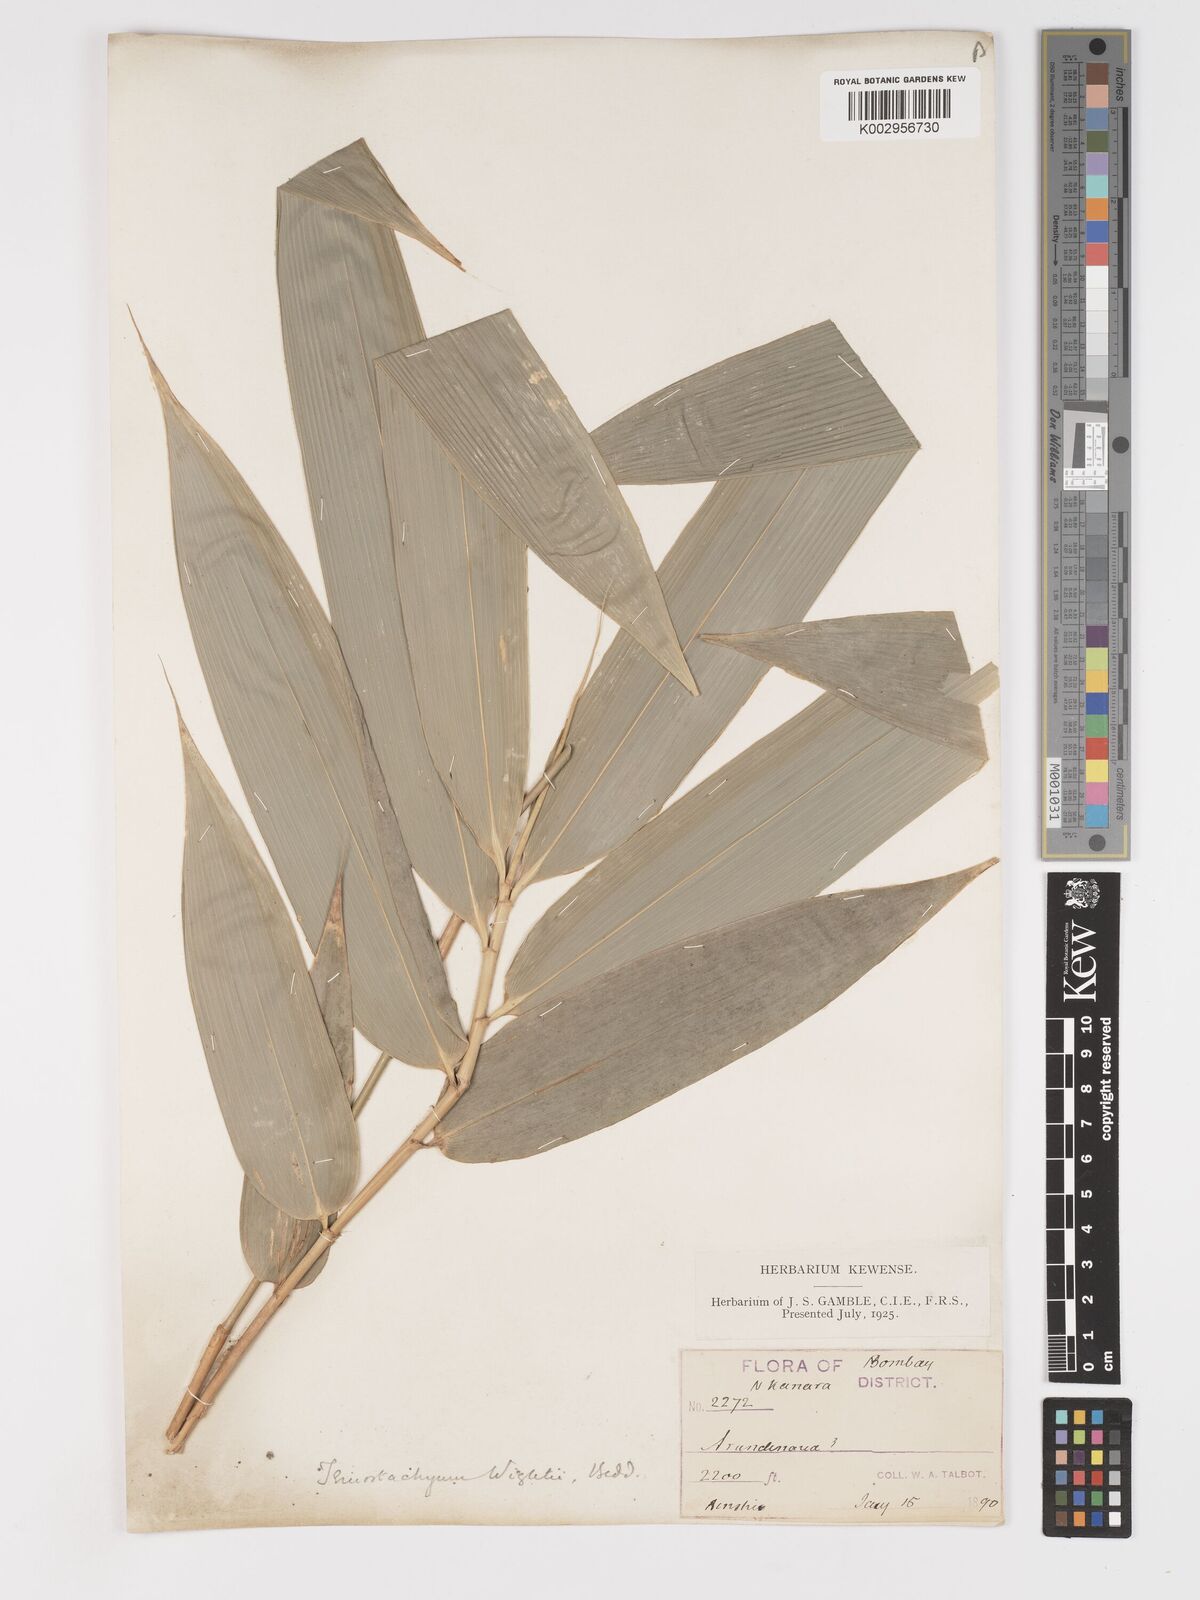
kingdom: Plantae
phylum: Tracheophyta
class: Liliopsida
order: Poales
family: Poaceae
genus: Schizostachyum
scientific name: Schizostachyum beddomei
